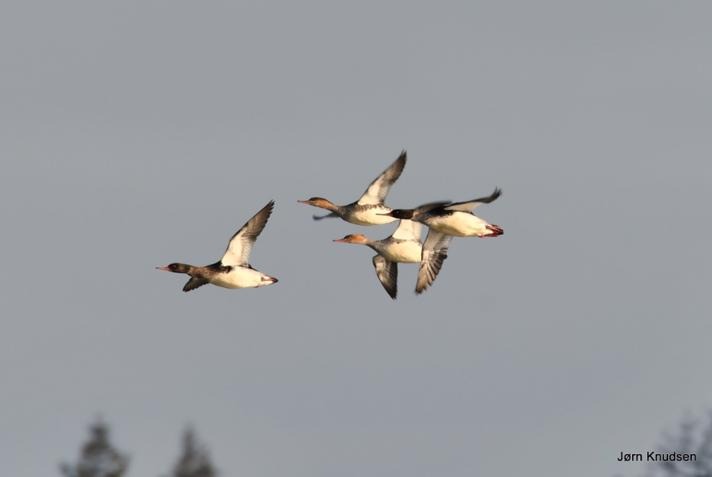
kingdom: Animalia
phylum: Chordata
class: Aves
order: Anseriformes
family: Anatidae
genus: Mergus
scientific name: Mergus serrator
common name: Toppet skallesluger
